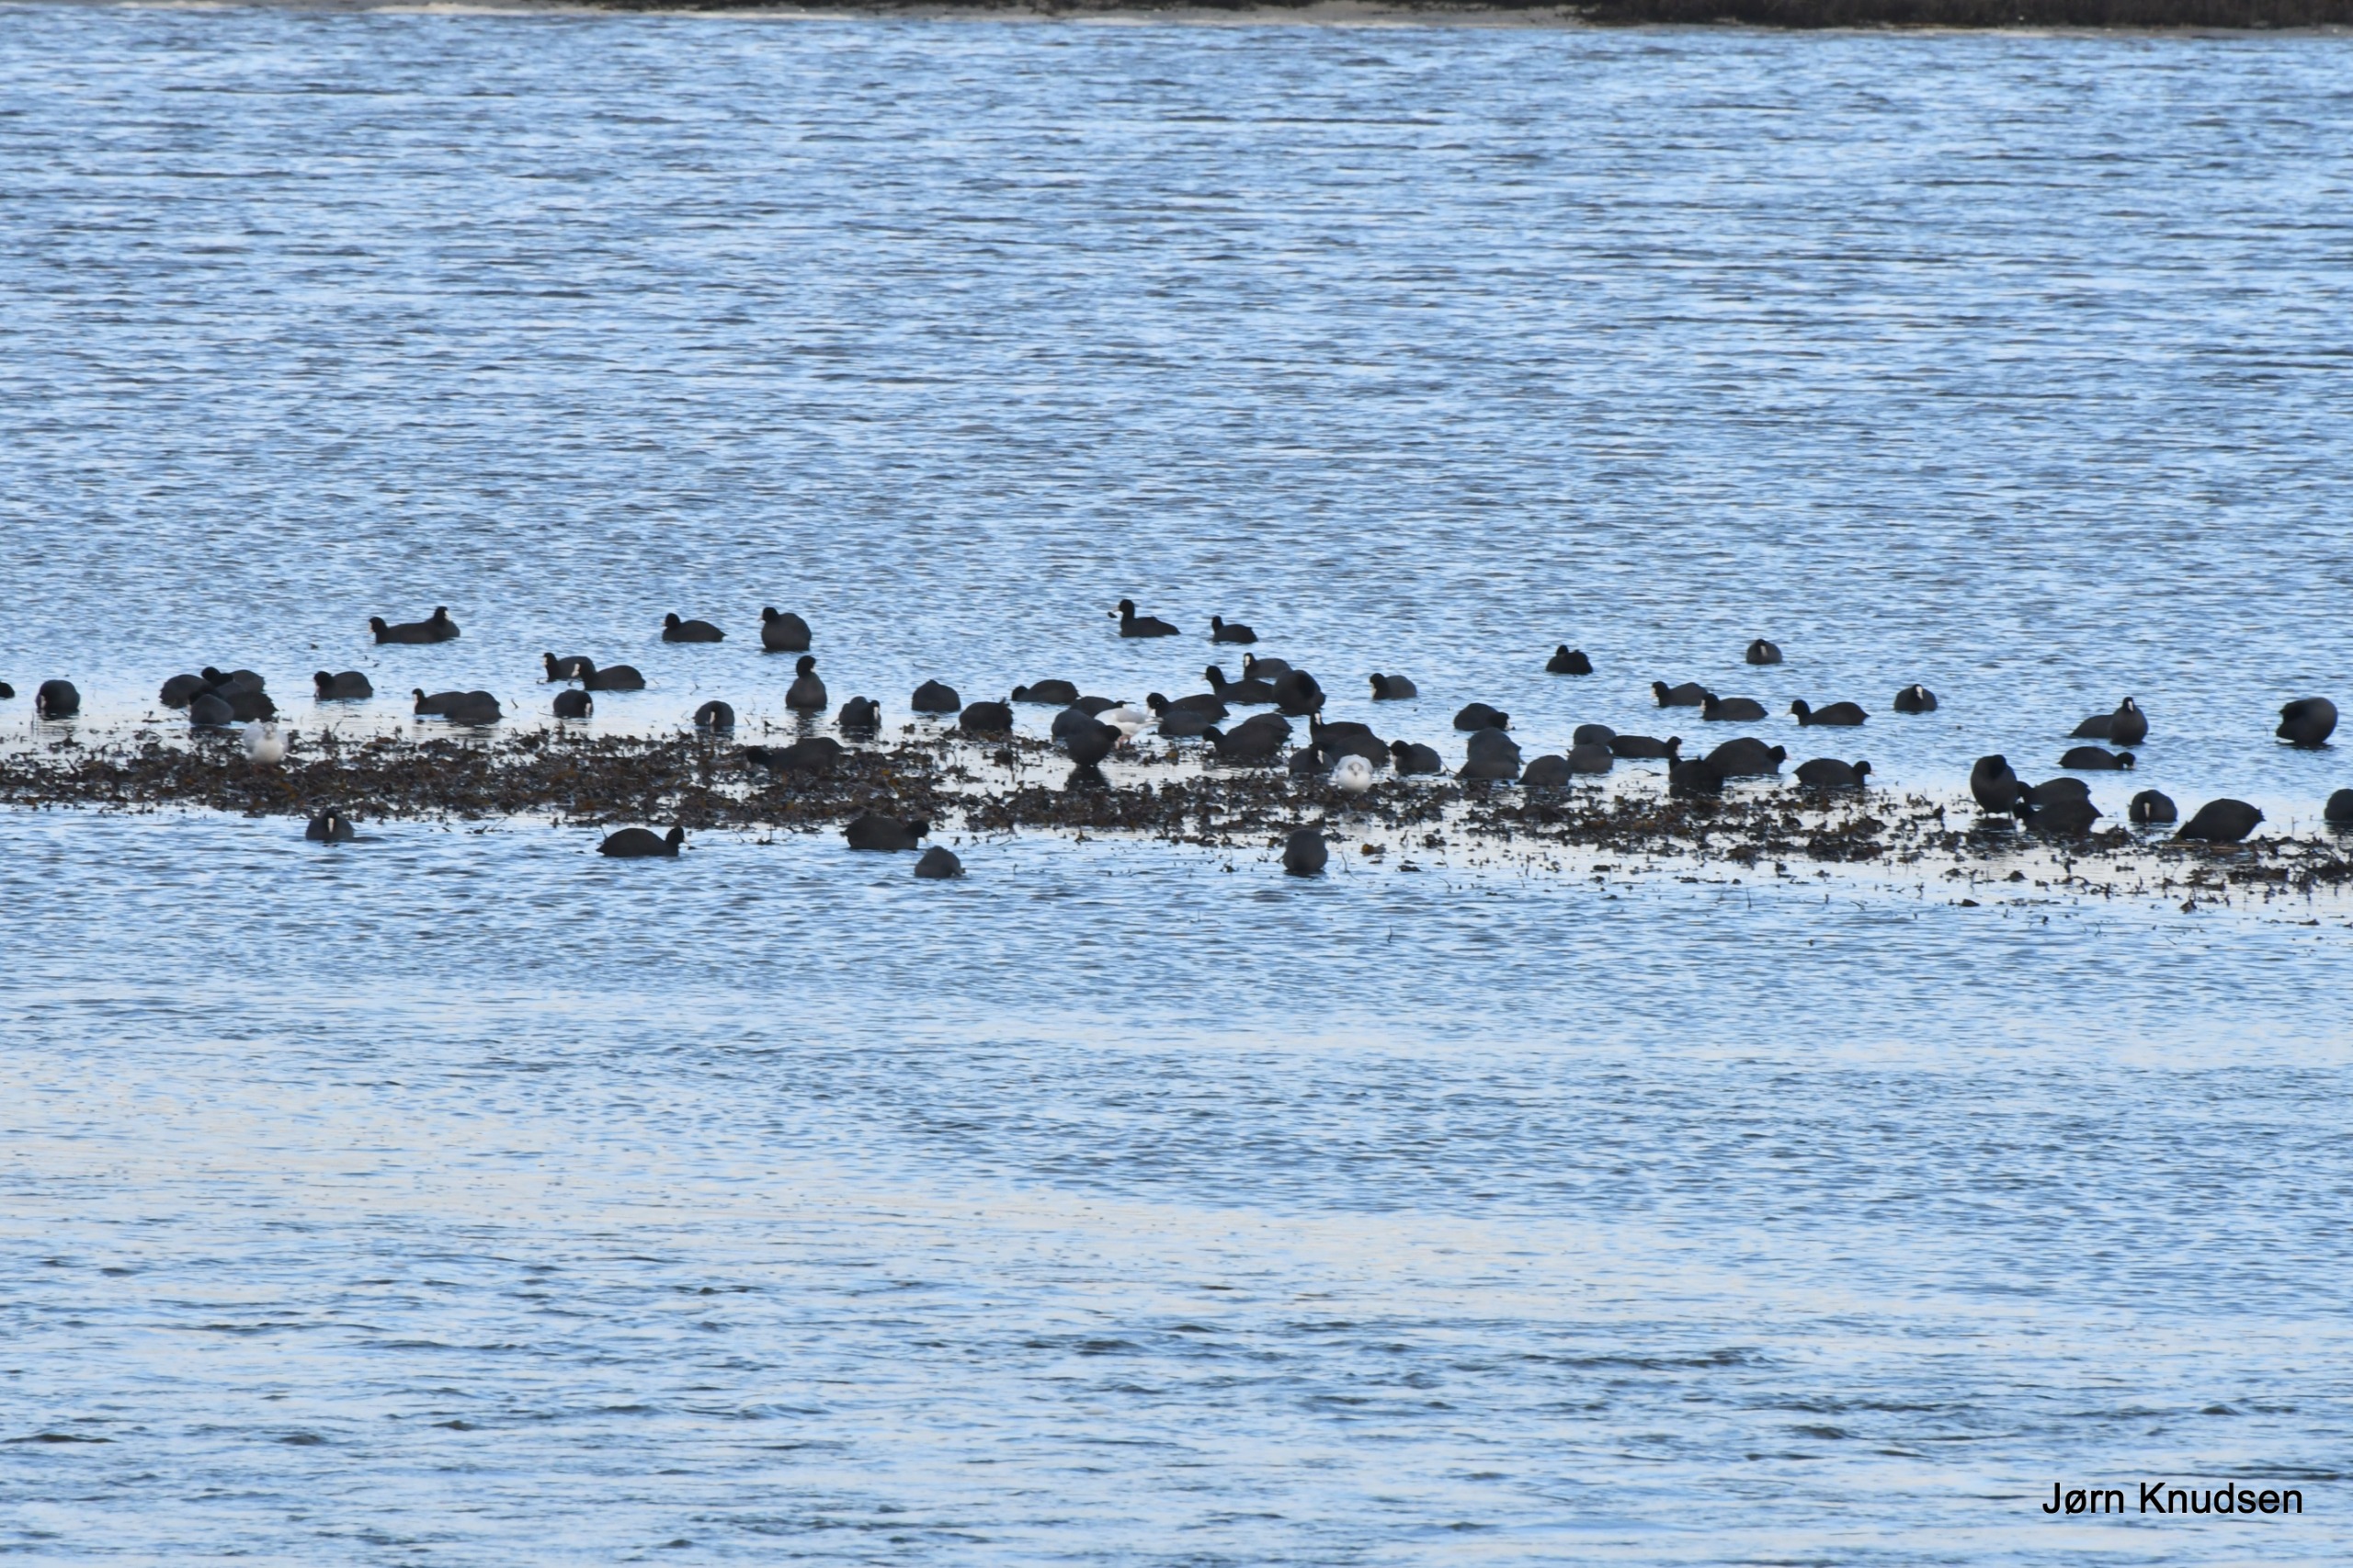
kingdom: Animalia
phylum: Chordata
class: Aves
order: Gruiformes
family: Rallidae
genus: Fulica
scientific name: Fulica atra
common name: Blishøne
